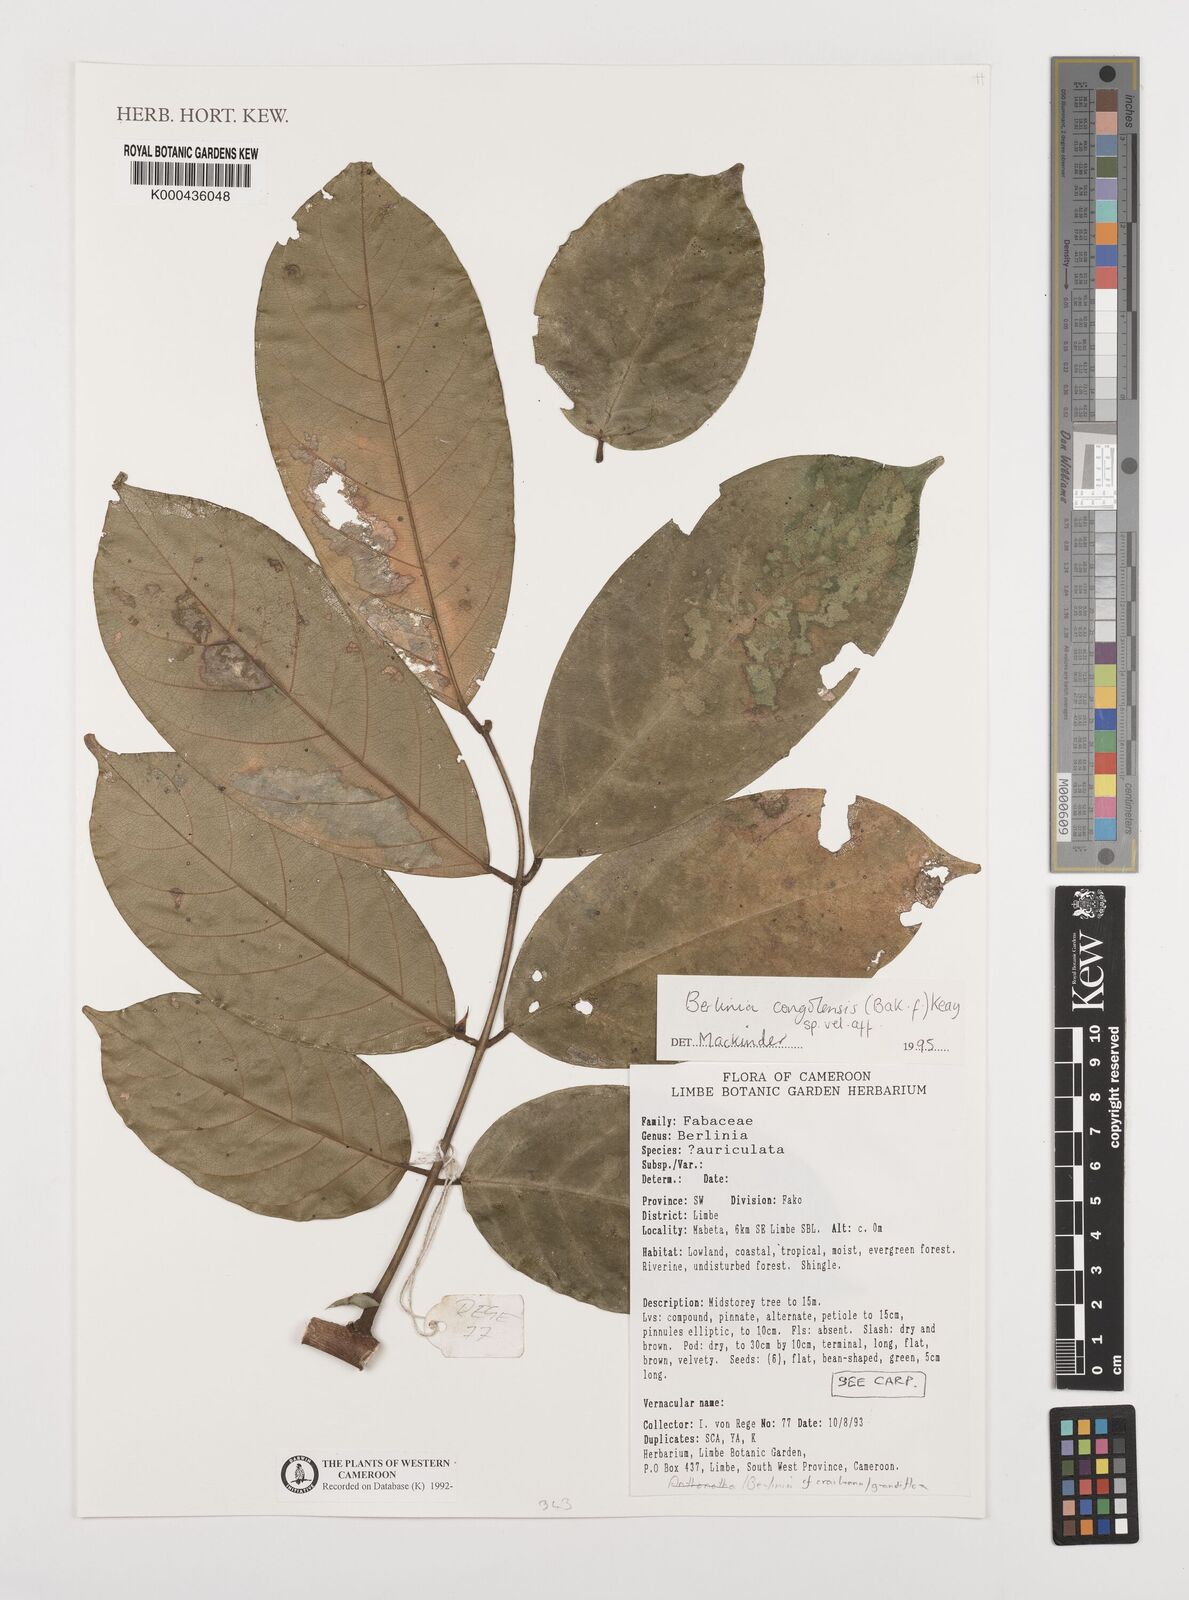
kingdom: Plantae
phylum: Tracheophyta
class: Magnoliopsida
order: Fabales
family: Fabaceae
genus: Berlinia
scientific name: Berlinia craibiana
